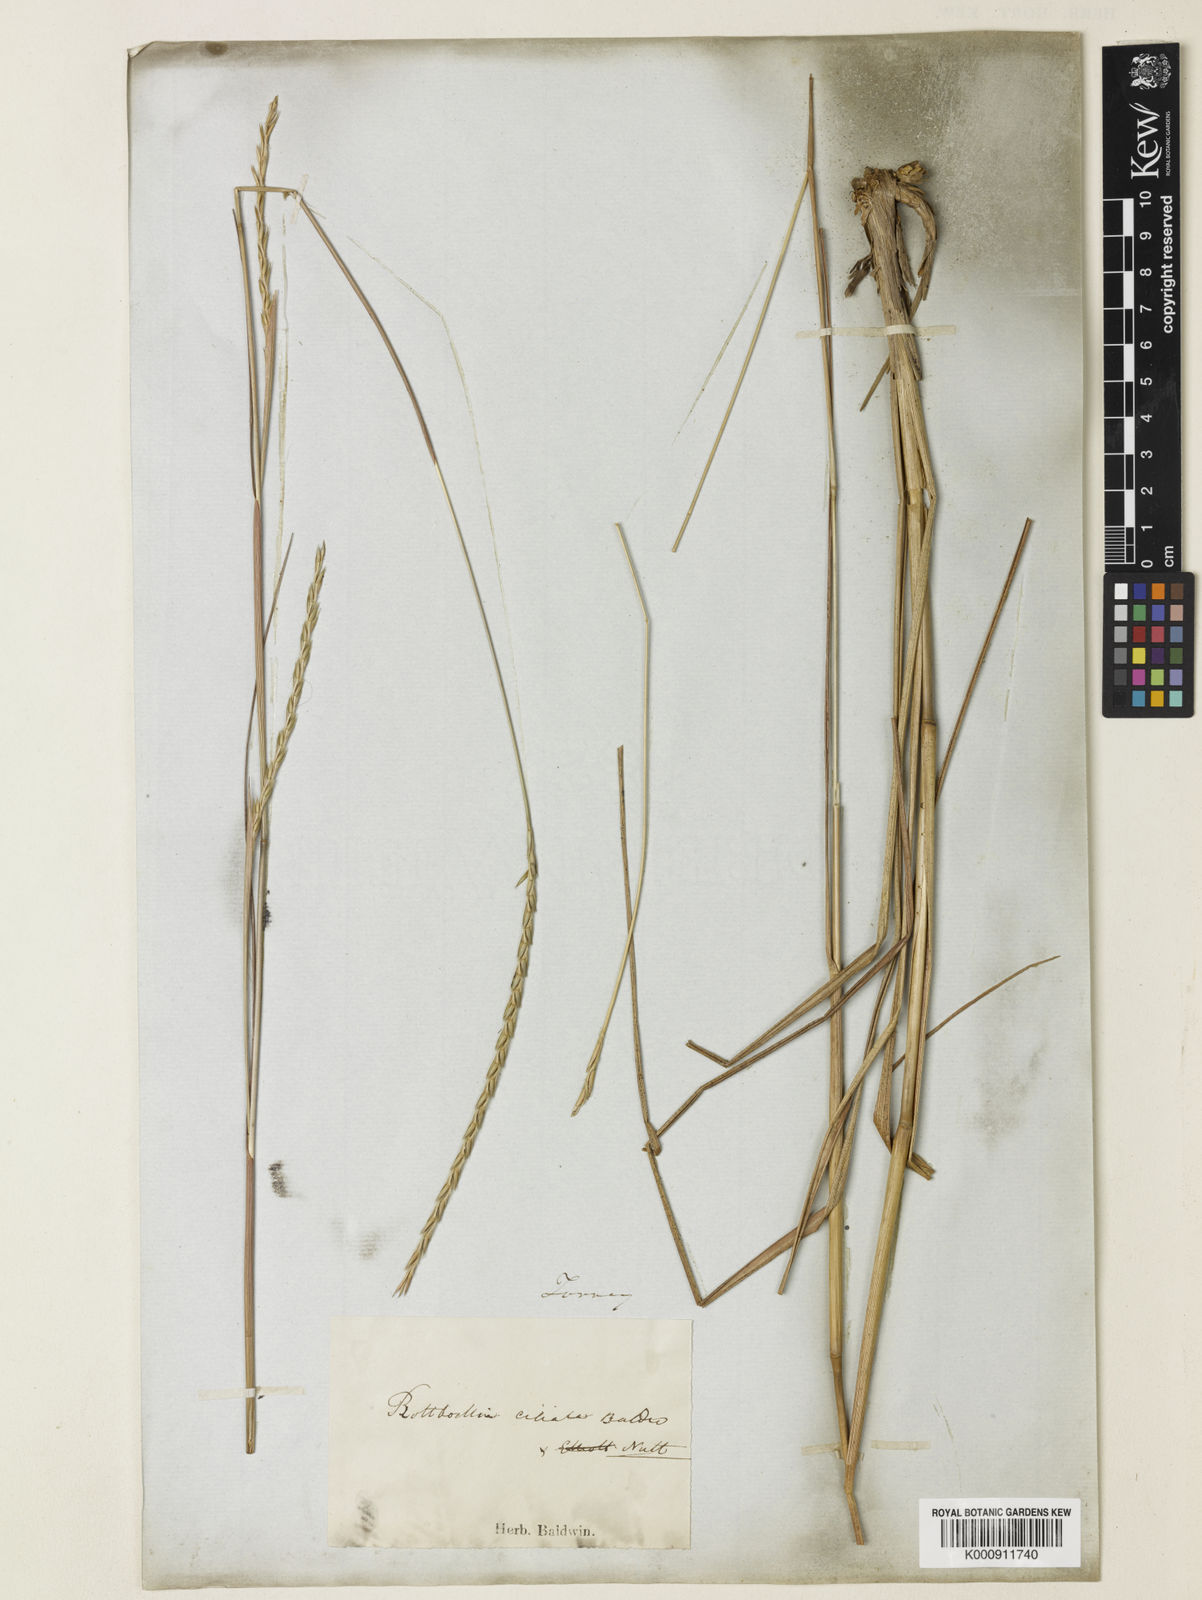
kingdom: Plantae
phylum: Tracheophyta
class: Liliopsida
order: Poales
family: Poaceae
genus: Elionurus
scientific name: Elionurus
